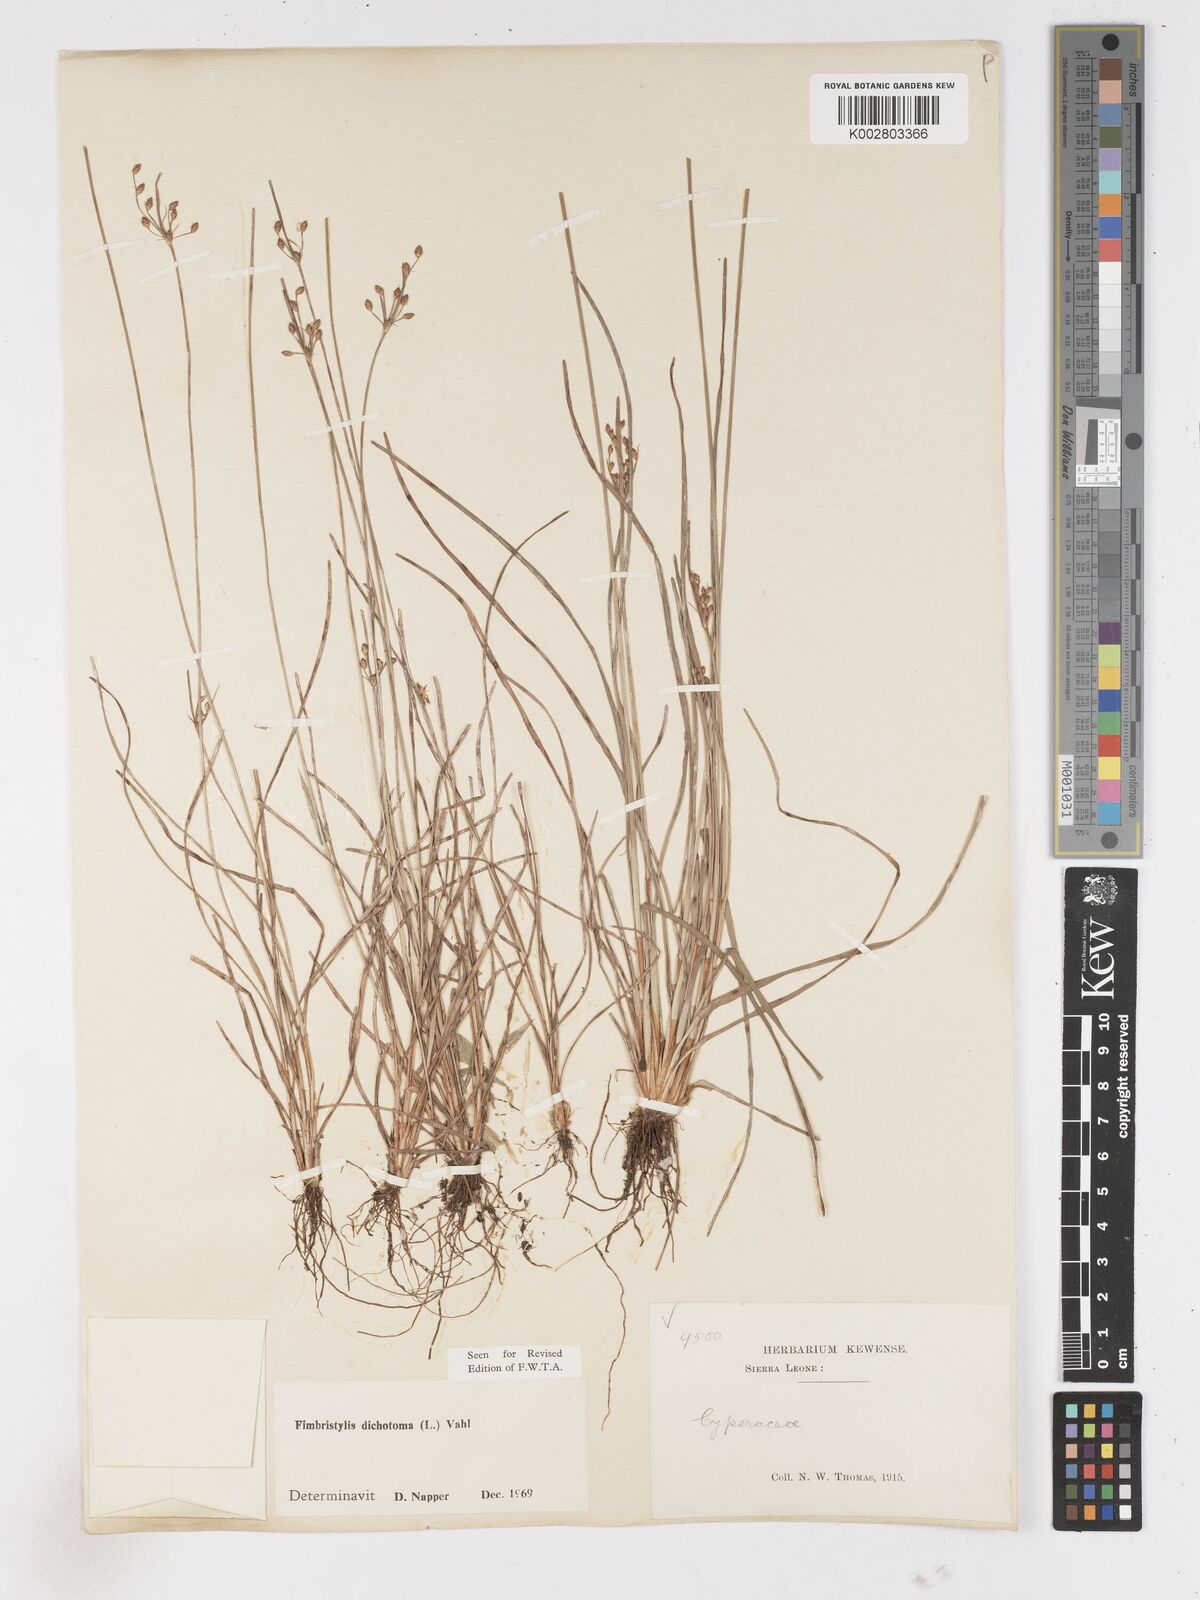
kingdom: Plantae
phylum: Tracheophyta
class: Liliopsida
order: Poales
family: Cyperaceae
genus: Fimbristylis
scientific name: Fimbristylis dichotoma
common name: Forked fimbry
